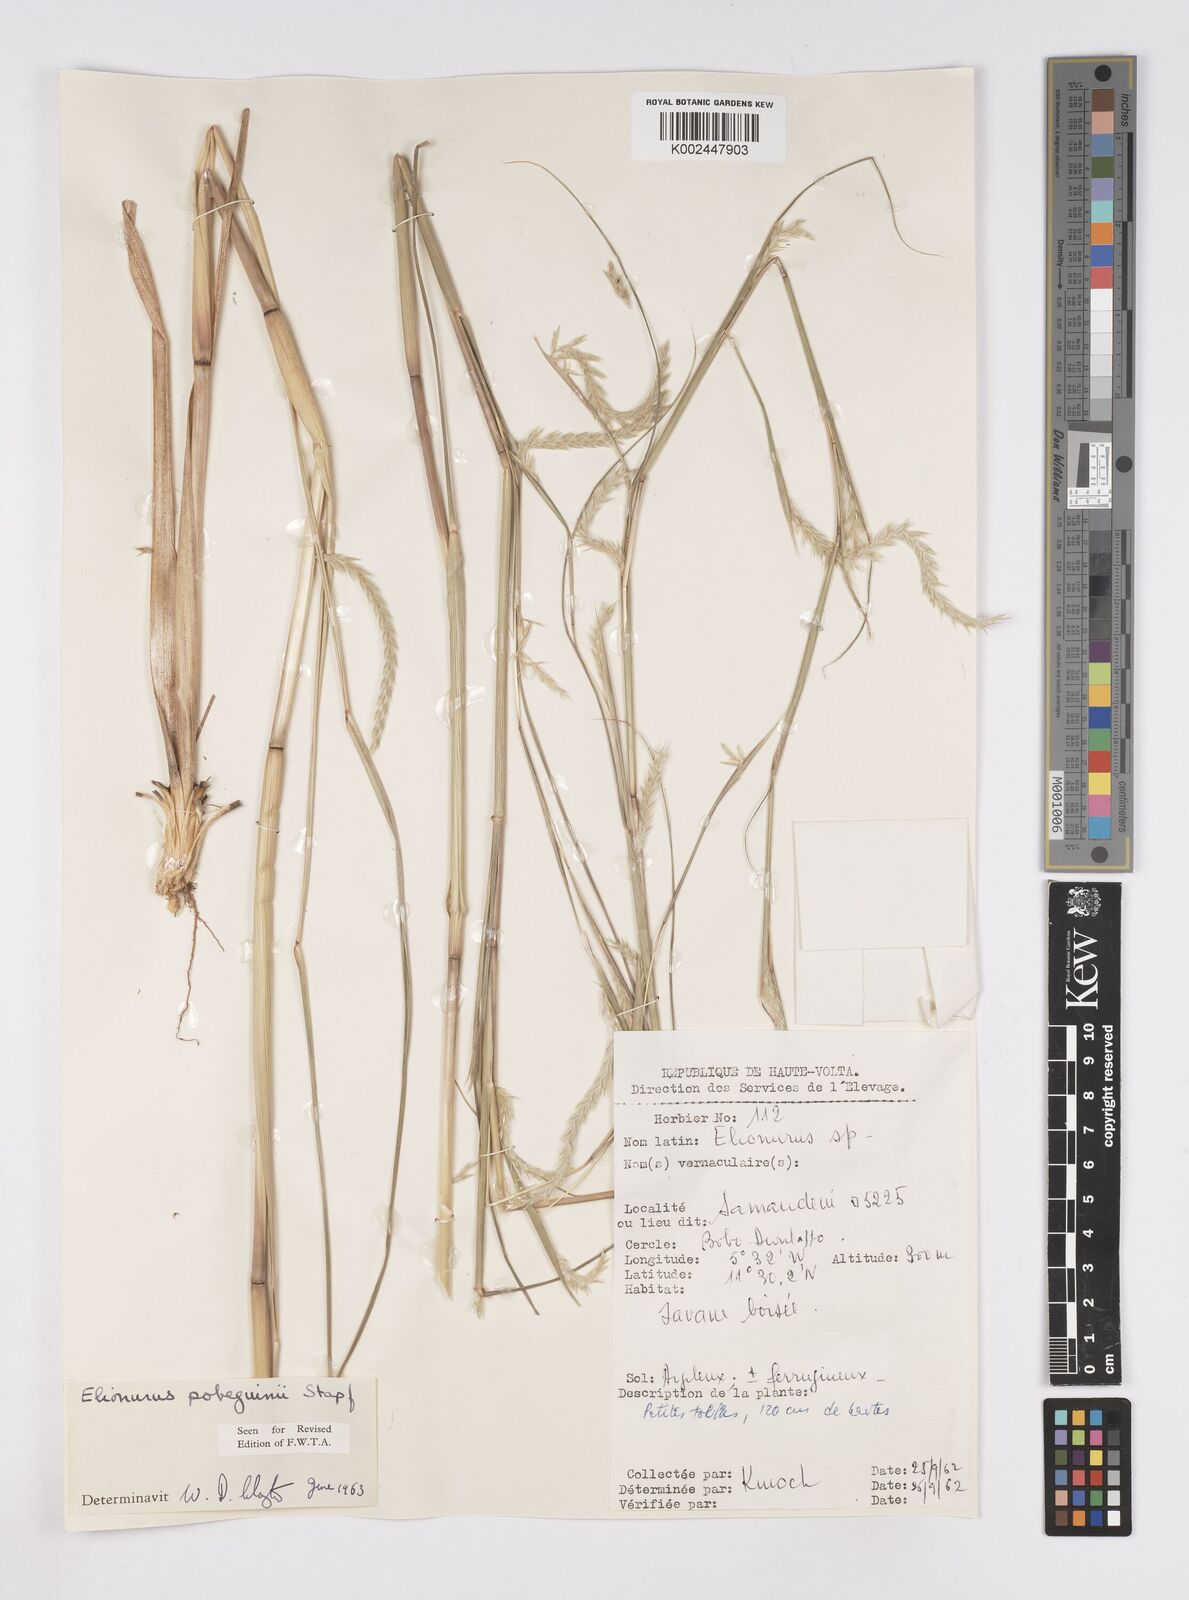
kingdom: Plantae
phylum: Tracheophyta
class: Liliopsida
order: Poales
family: Poaceae
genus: Elionurus
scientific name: Elionurus ciliaris
